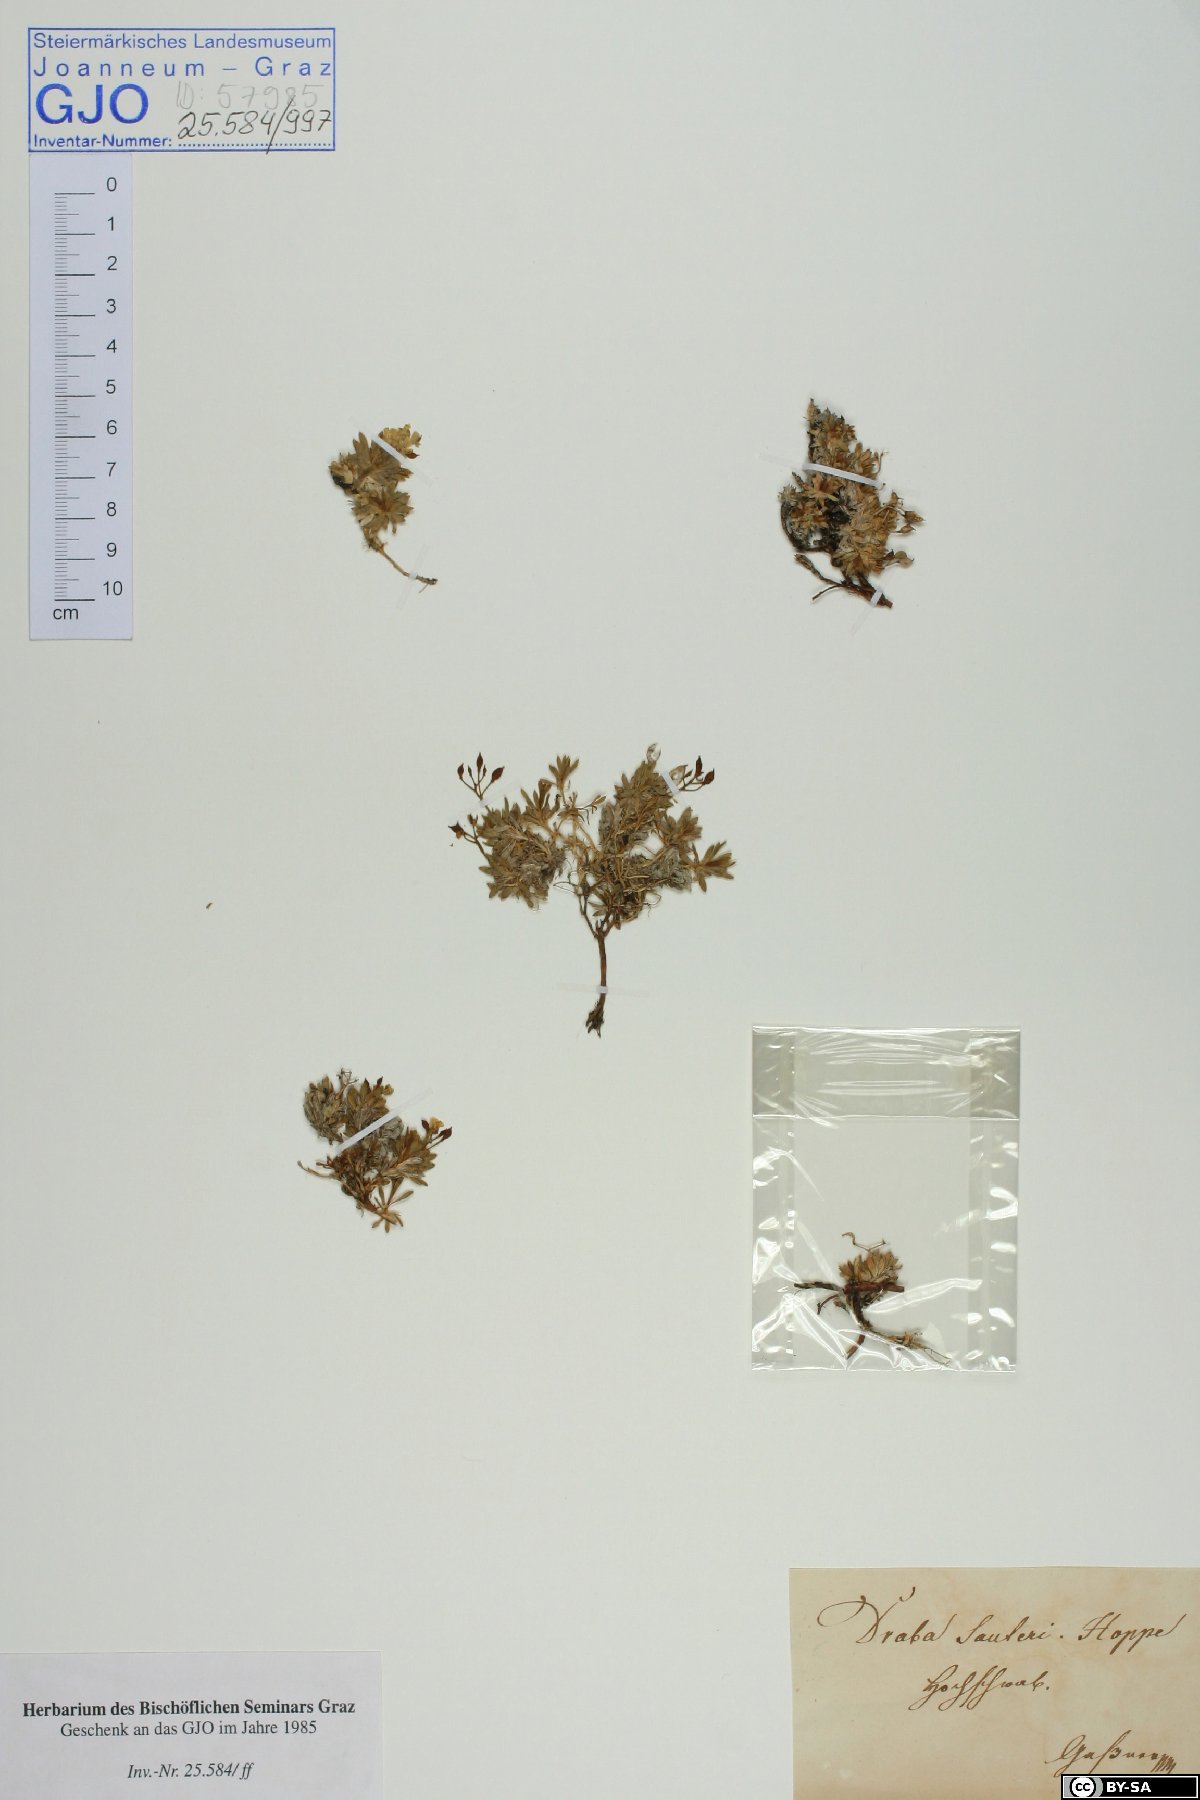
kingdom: Plantae
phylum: Tracheophyta
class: Magnoliopsida
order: Brassicales
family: Brassicaceae
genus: Draba
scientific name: Draba sauteri
